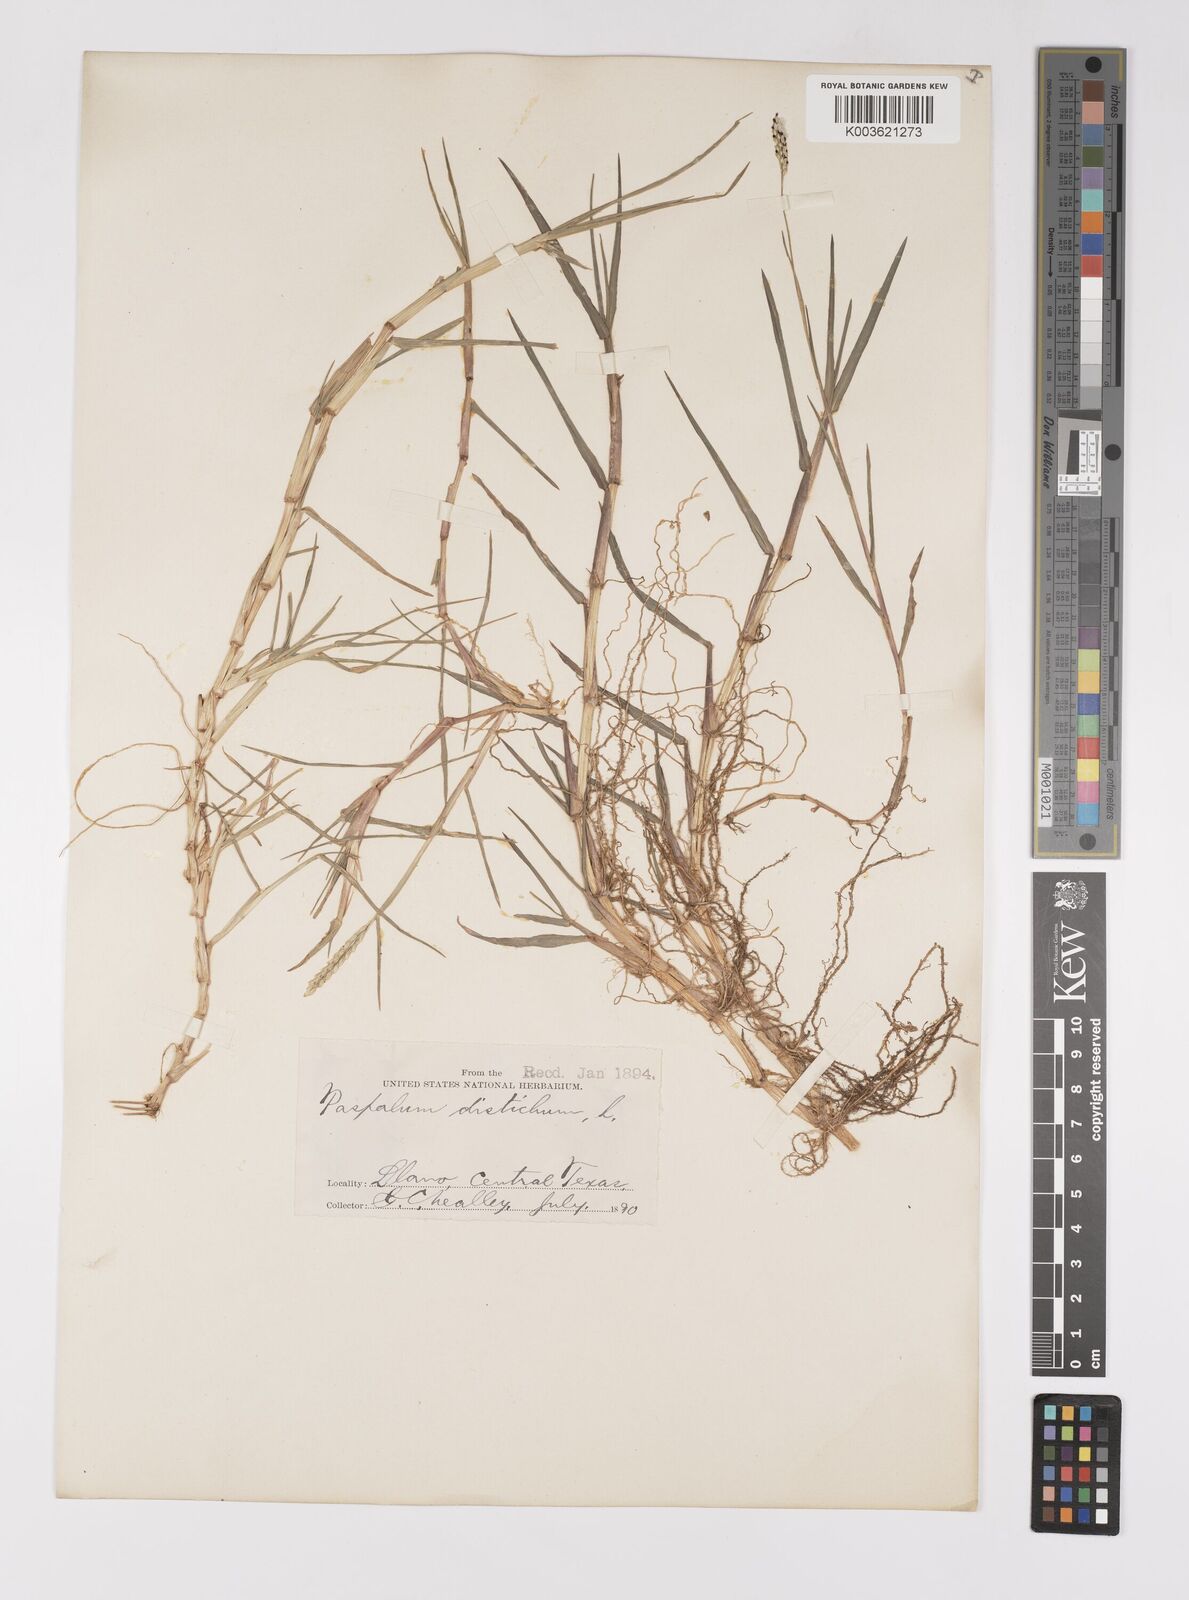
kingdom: Plantae
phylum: Tracheophyta
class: Liliopsida
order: Poales
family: Poaceae
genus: Paspalum
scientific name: Paspalum distichum
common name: Knotgrass
